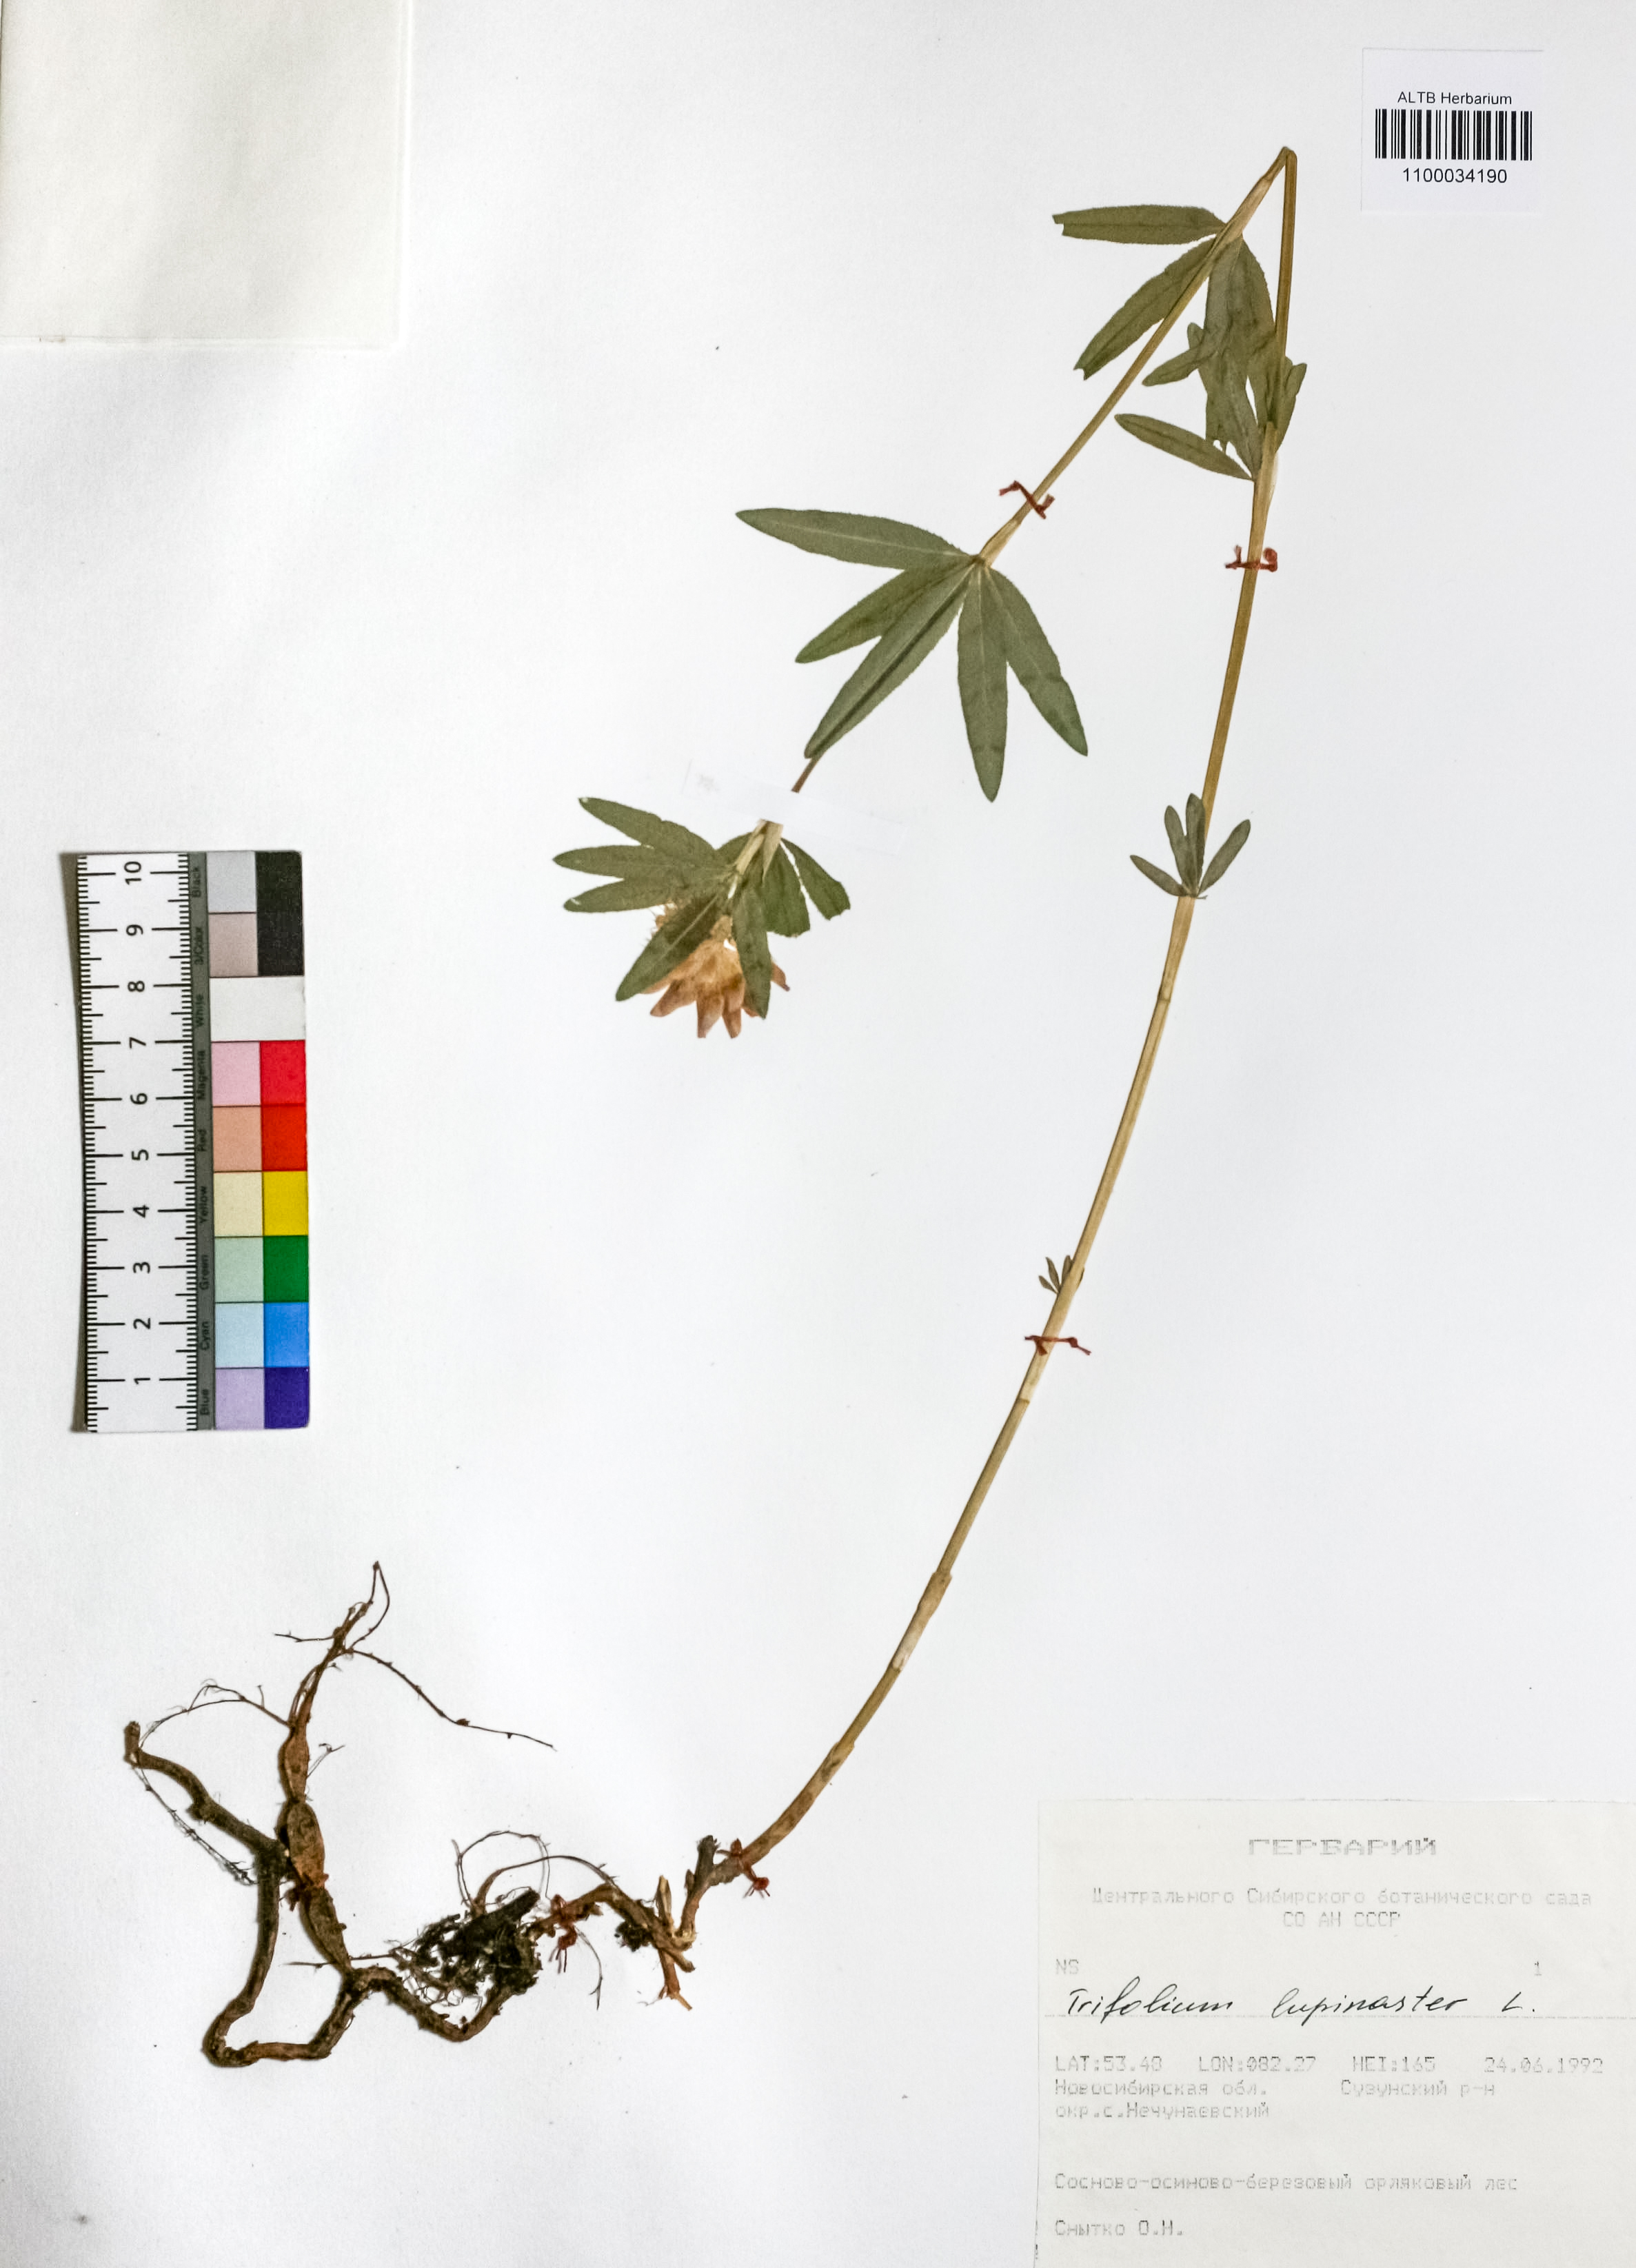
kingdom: Plantae
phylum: Tracheophyta
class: Magnoliopsida
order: Fabales
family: Fabaceae
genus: Trifolium
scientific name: Trifolium lupinaster
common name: Lupine clover
